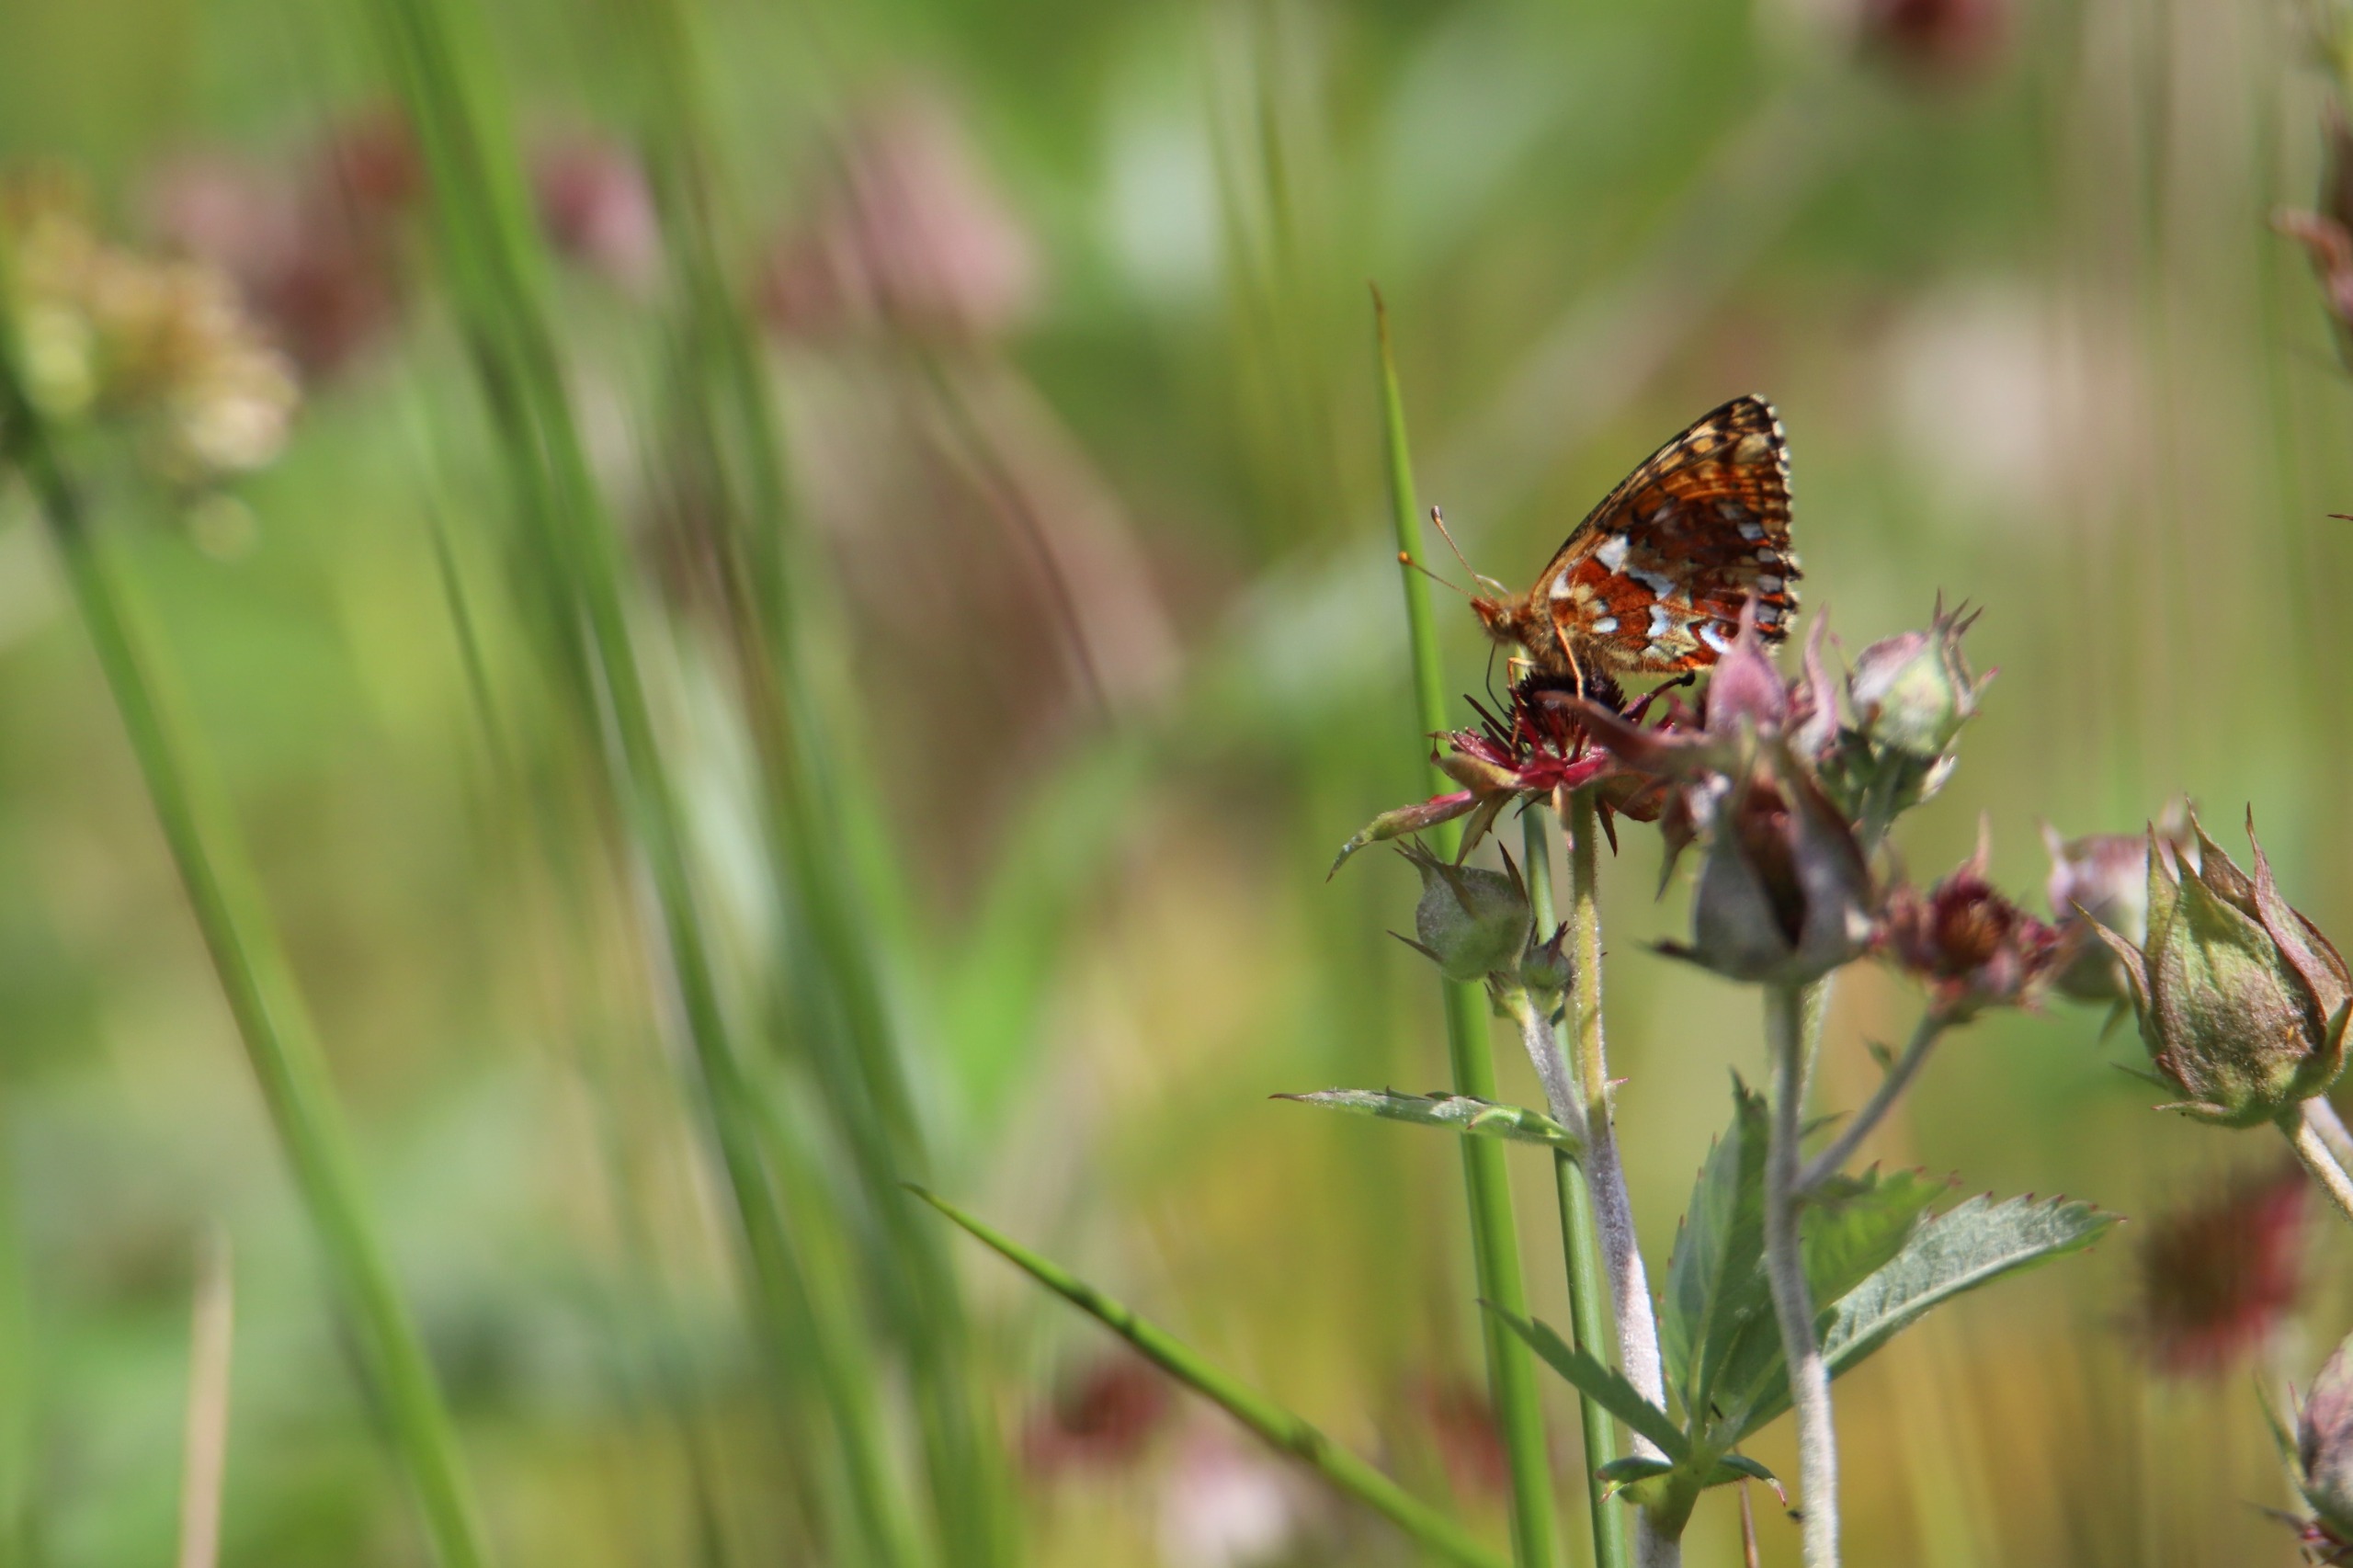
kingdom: Animalia
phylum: Arthropoda
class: Insecta
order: Lepidoptera
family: Nymphalidae
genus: Boloria
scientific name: Boloria aquilonaris
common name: Moseperlemorsommerfugl
